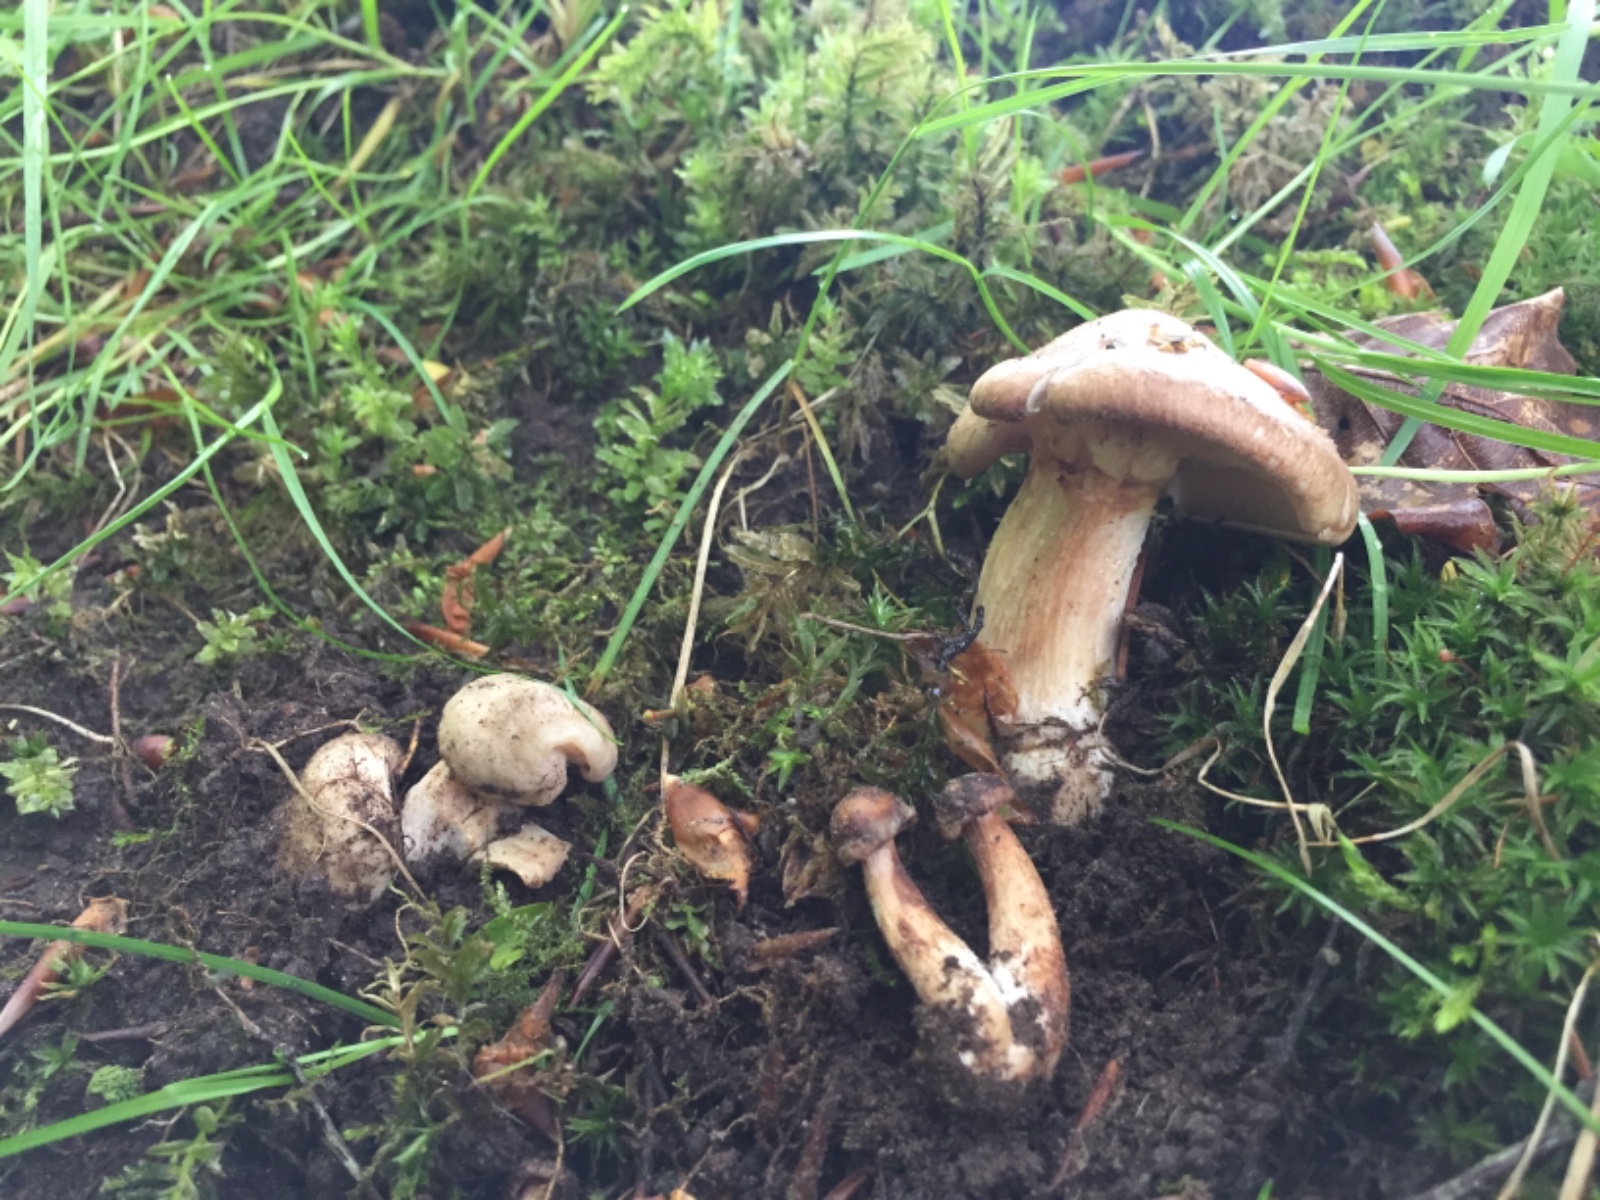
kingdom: Fungi
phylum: Basidiomycota
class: Agaricomycetes
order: Agaricales
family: Entolomataceae
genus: Entoloma
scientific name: Entoloma clypeatum
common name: flammet rødblad
